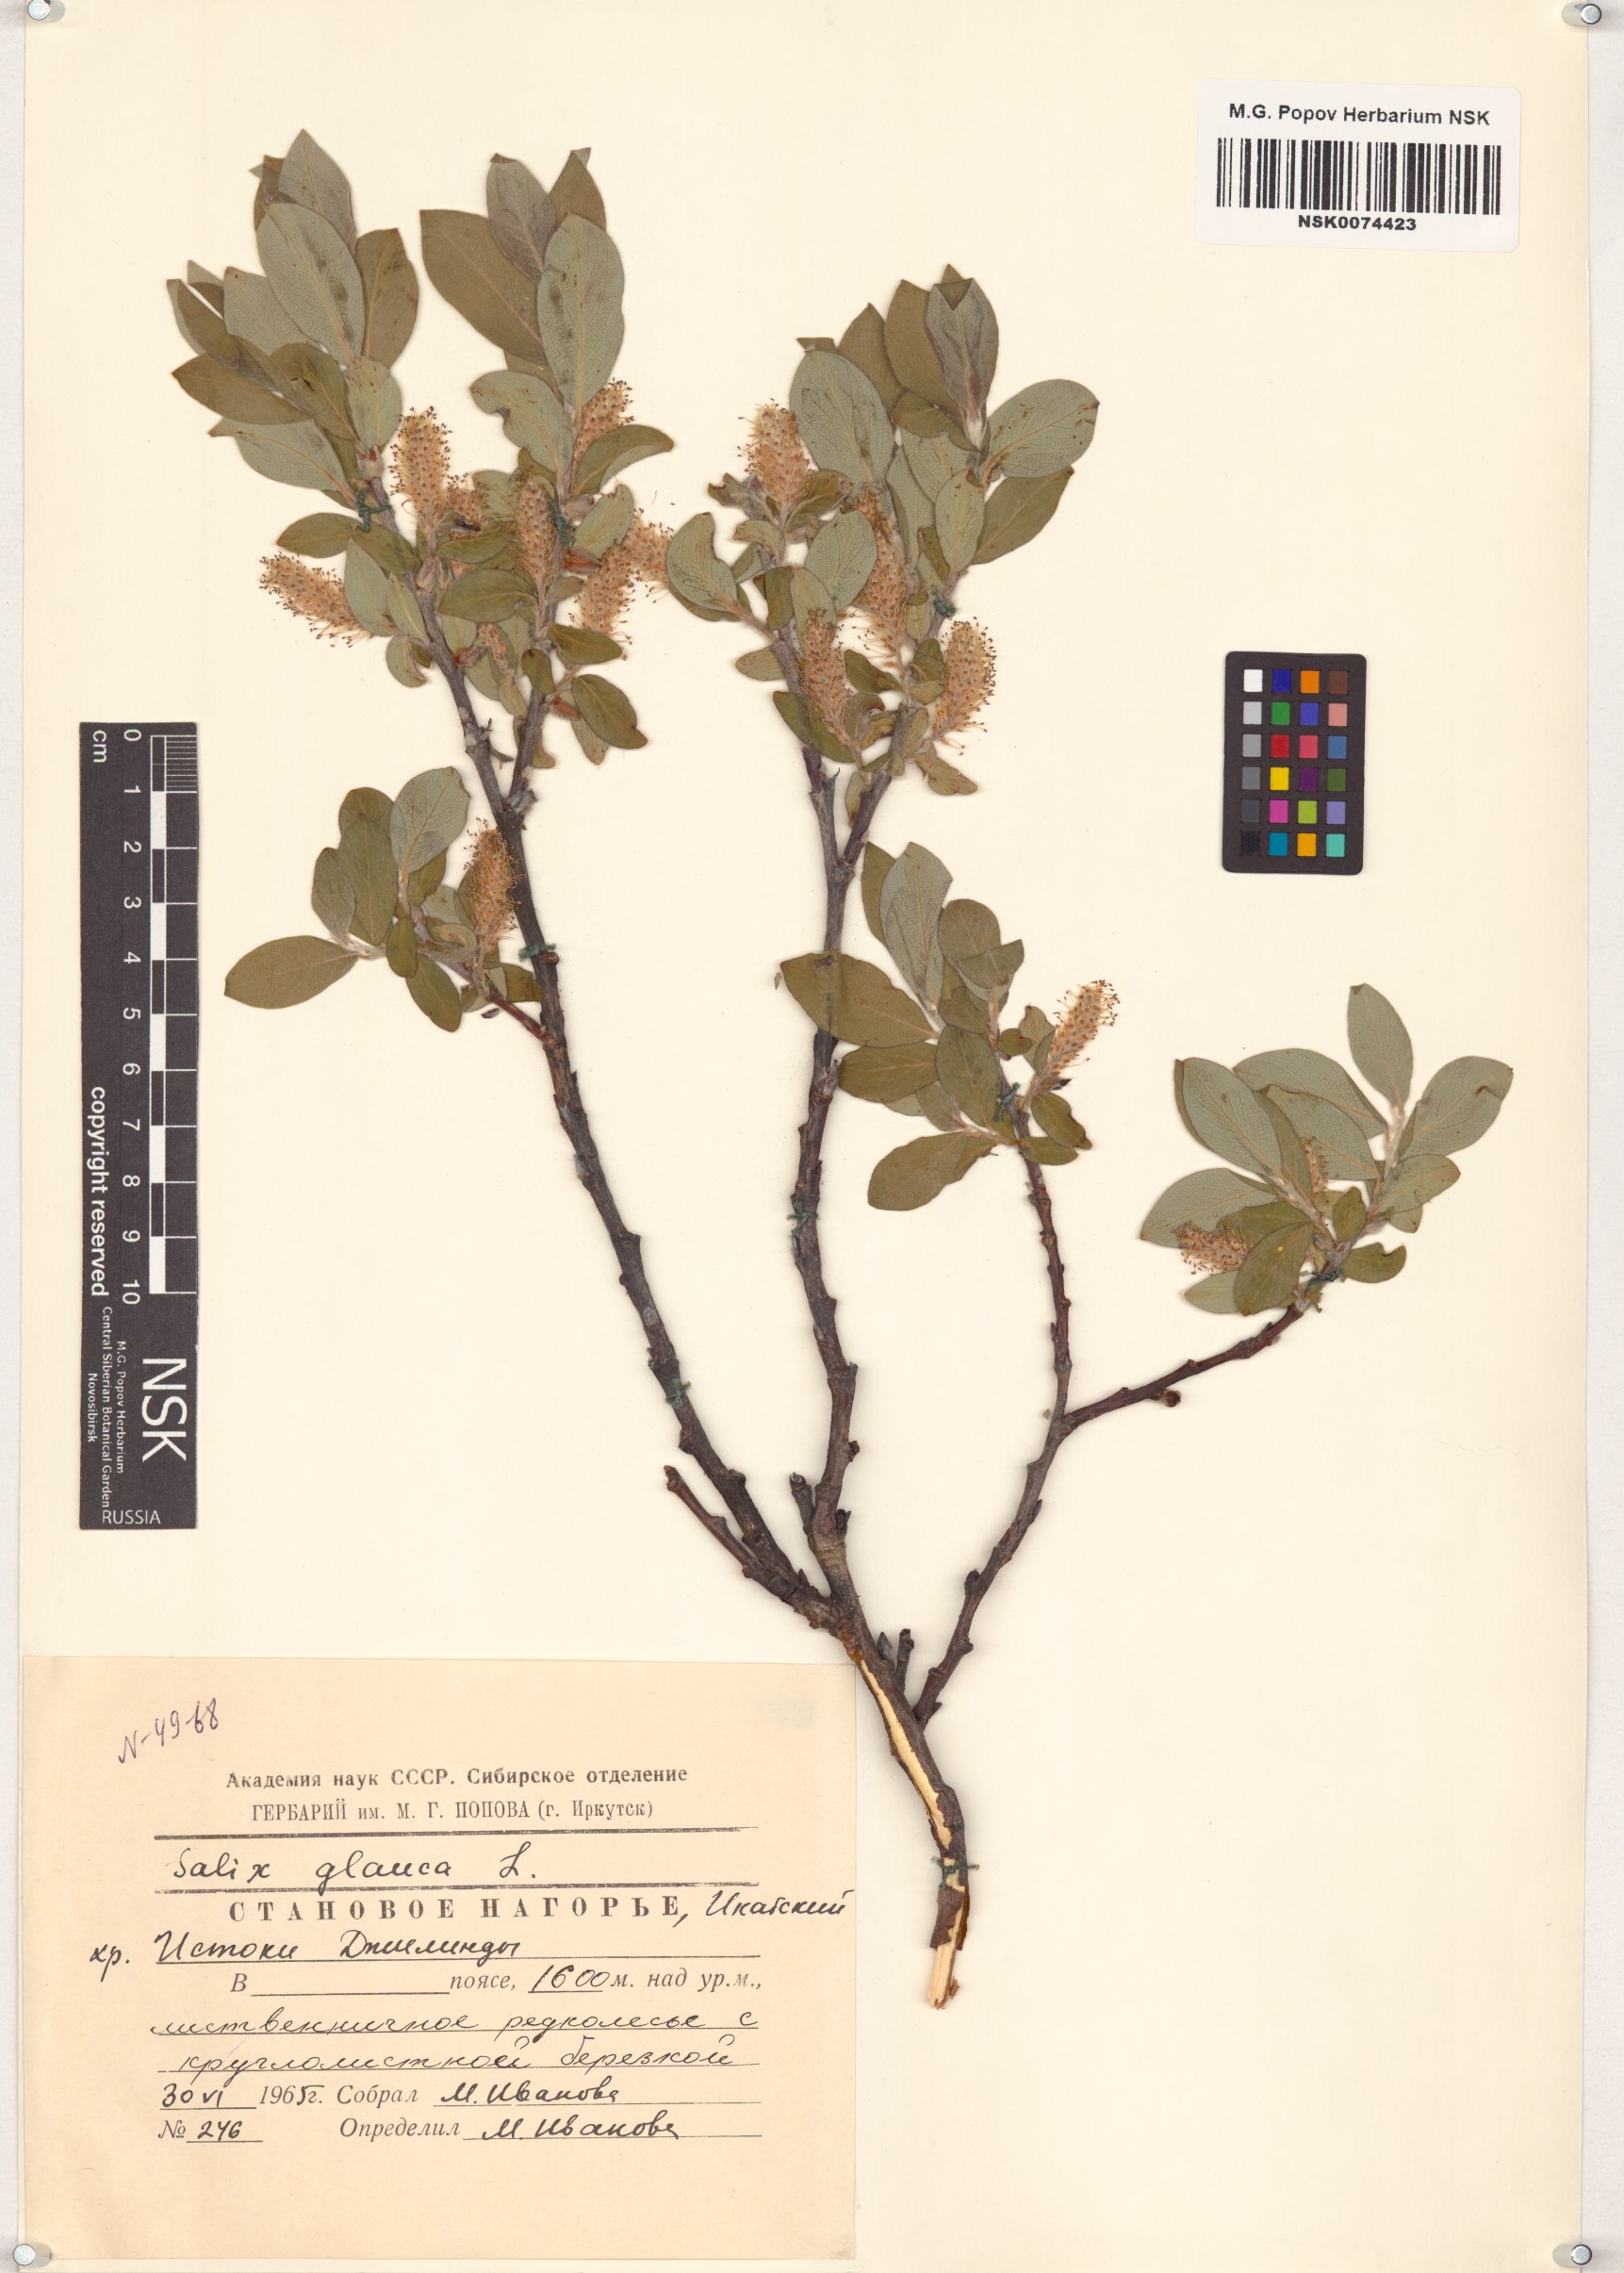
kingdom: Plantae
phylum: Tracheophyta
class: Magnoliopsida
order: Malpighiales
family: Salicaceae
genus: Salix
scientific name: Salix glauca
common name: Glaucous willow
